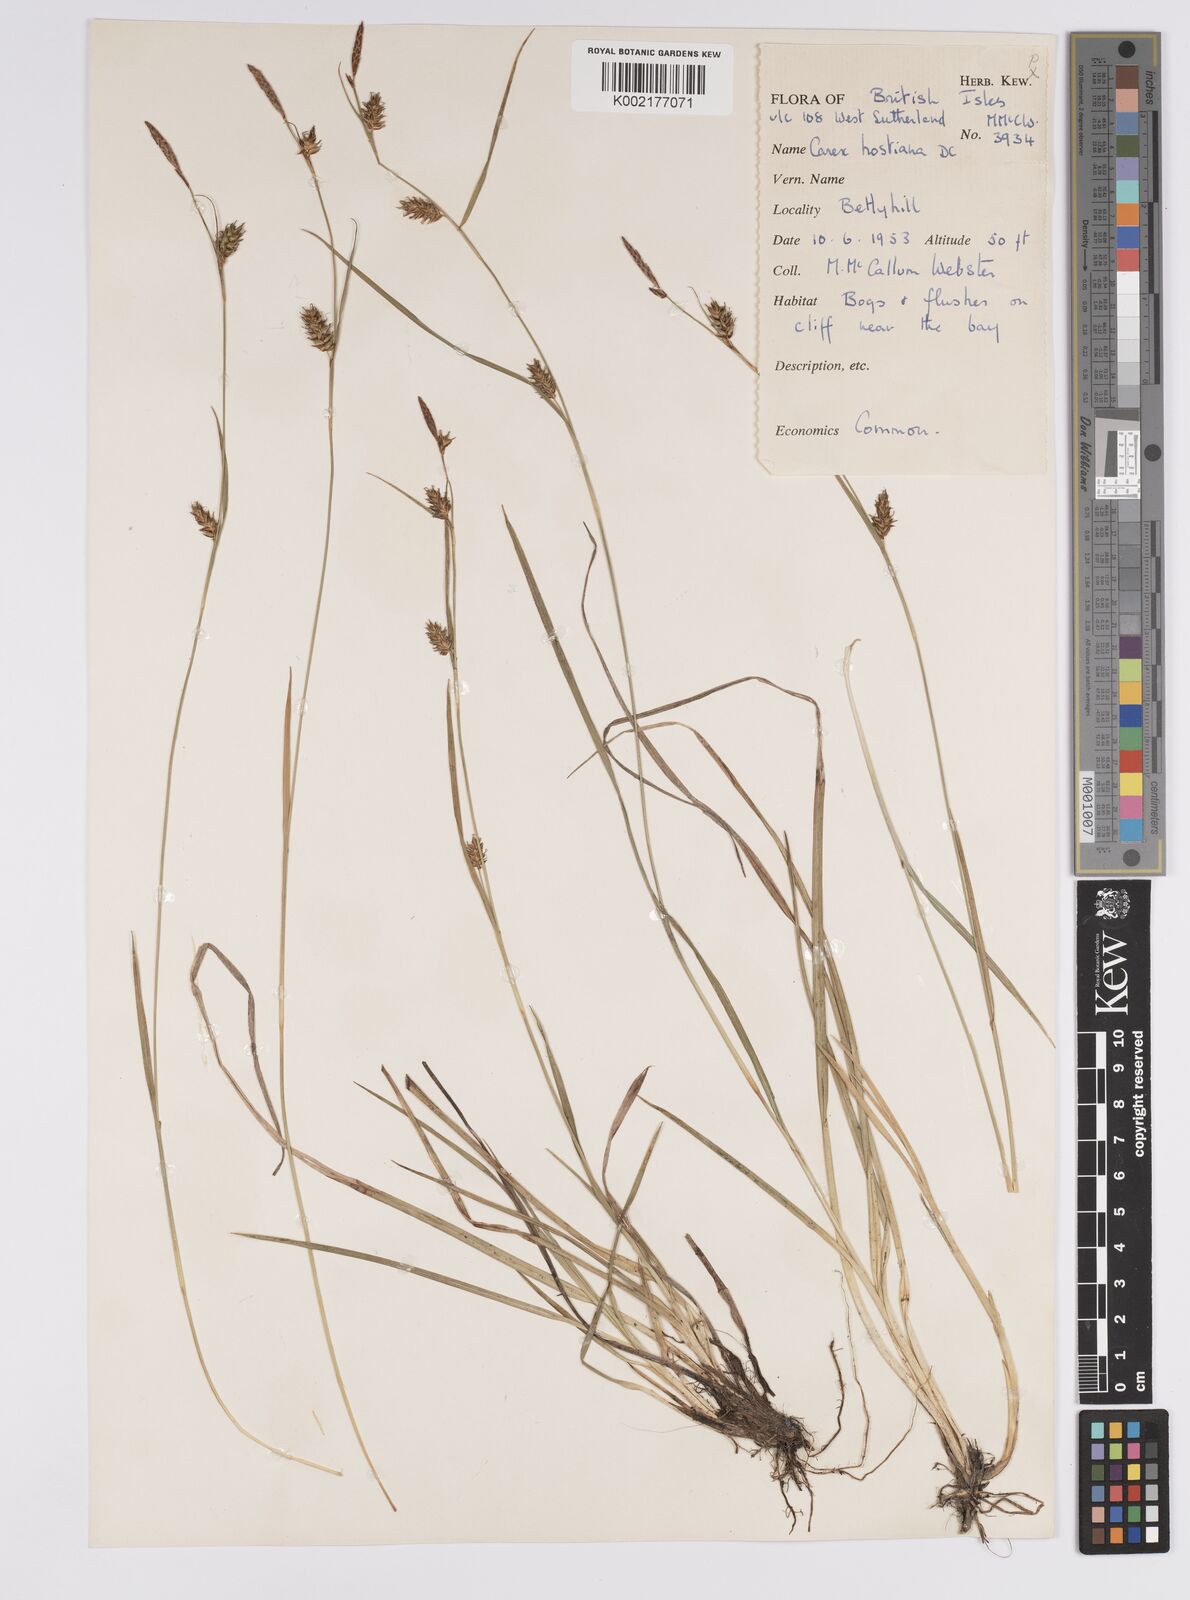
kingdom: Plantae
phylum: Tracheophyta
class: Liliopsida
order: Poales
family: Cyperaceae
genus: Carex
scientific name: Carex hostiana
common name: Tawny sedge
